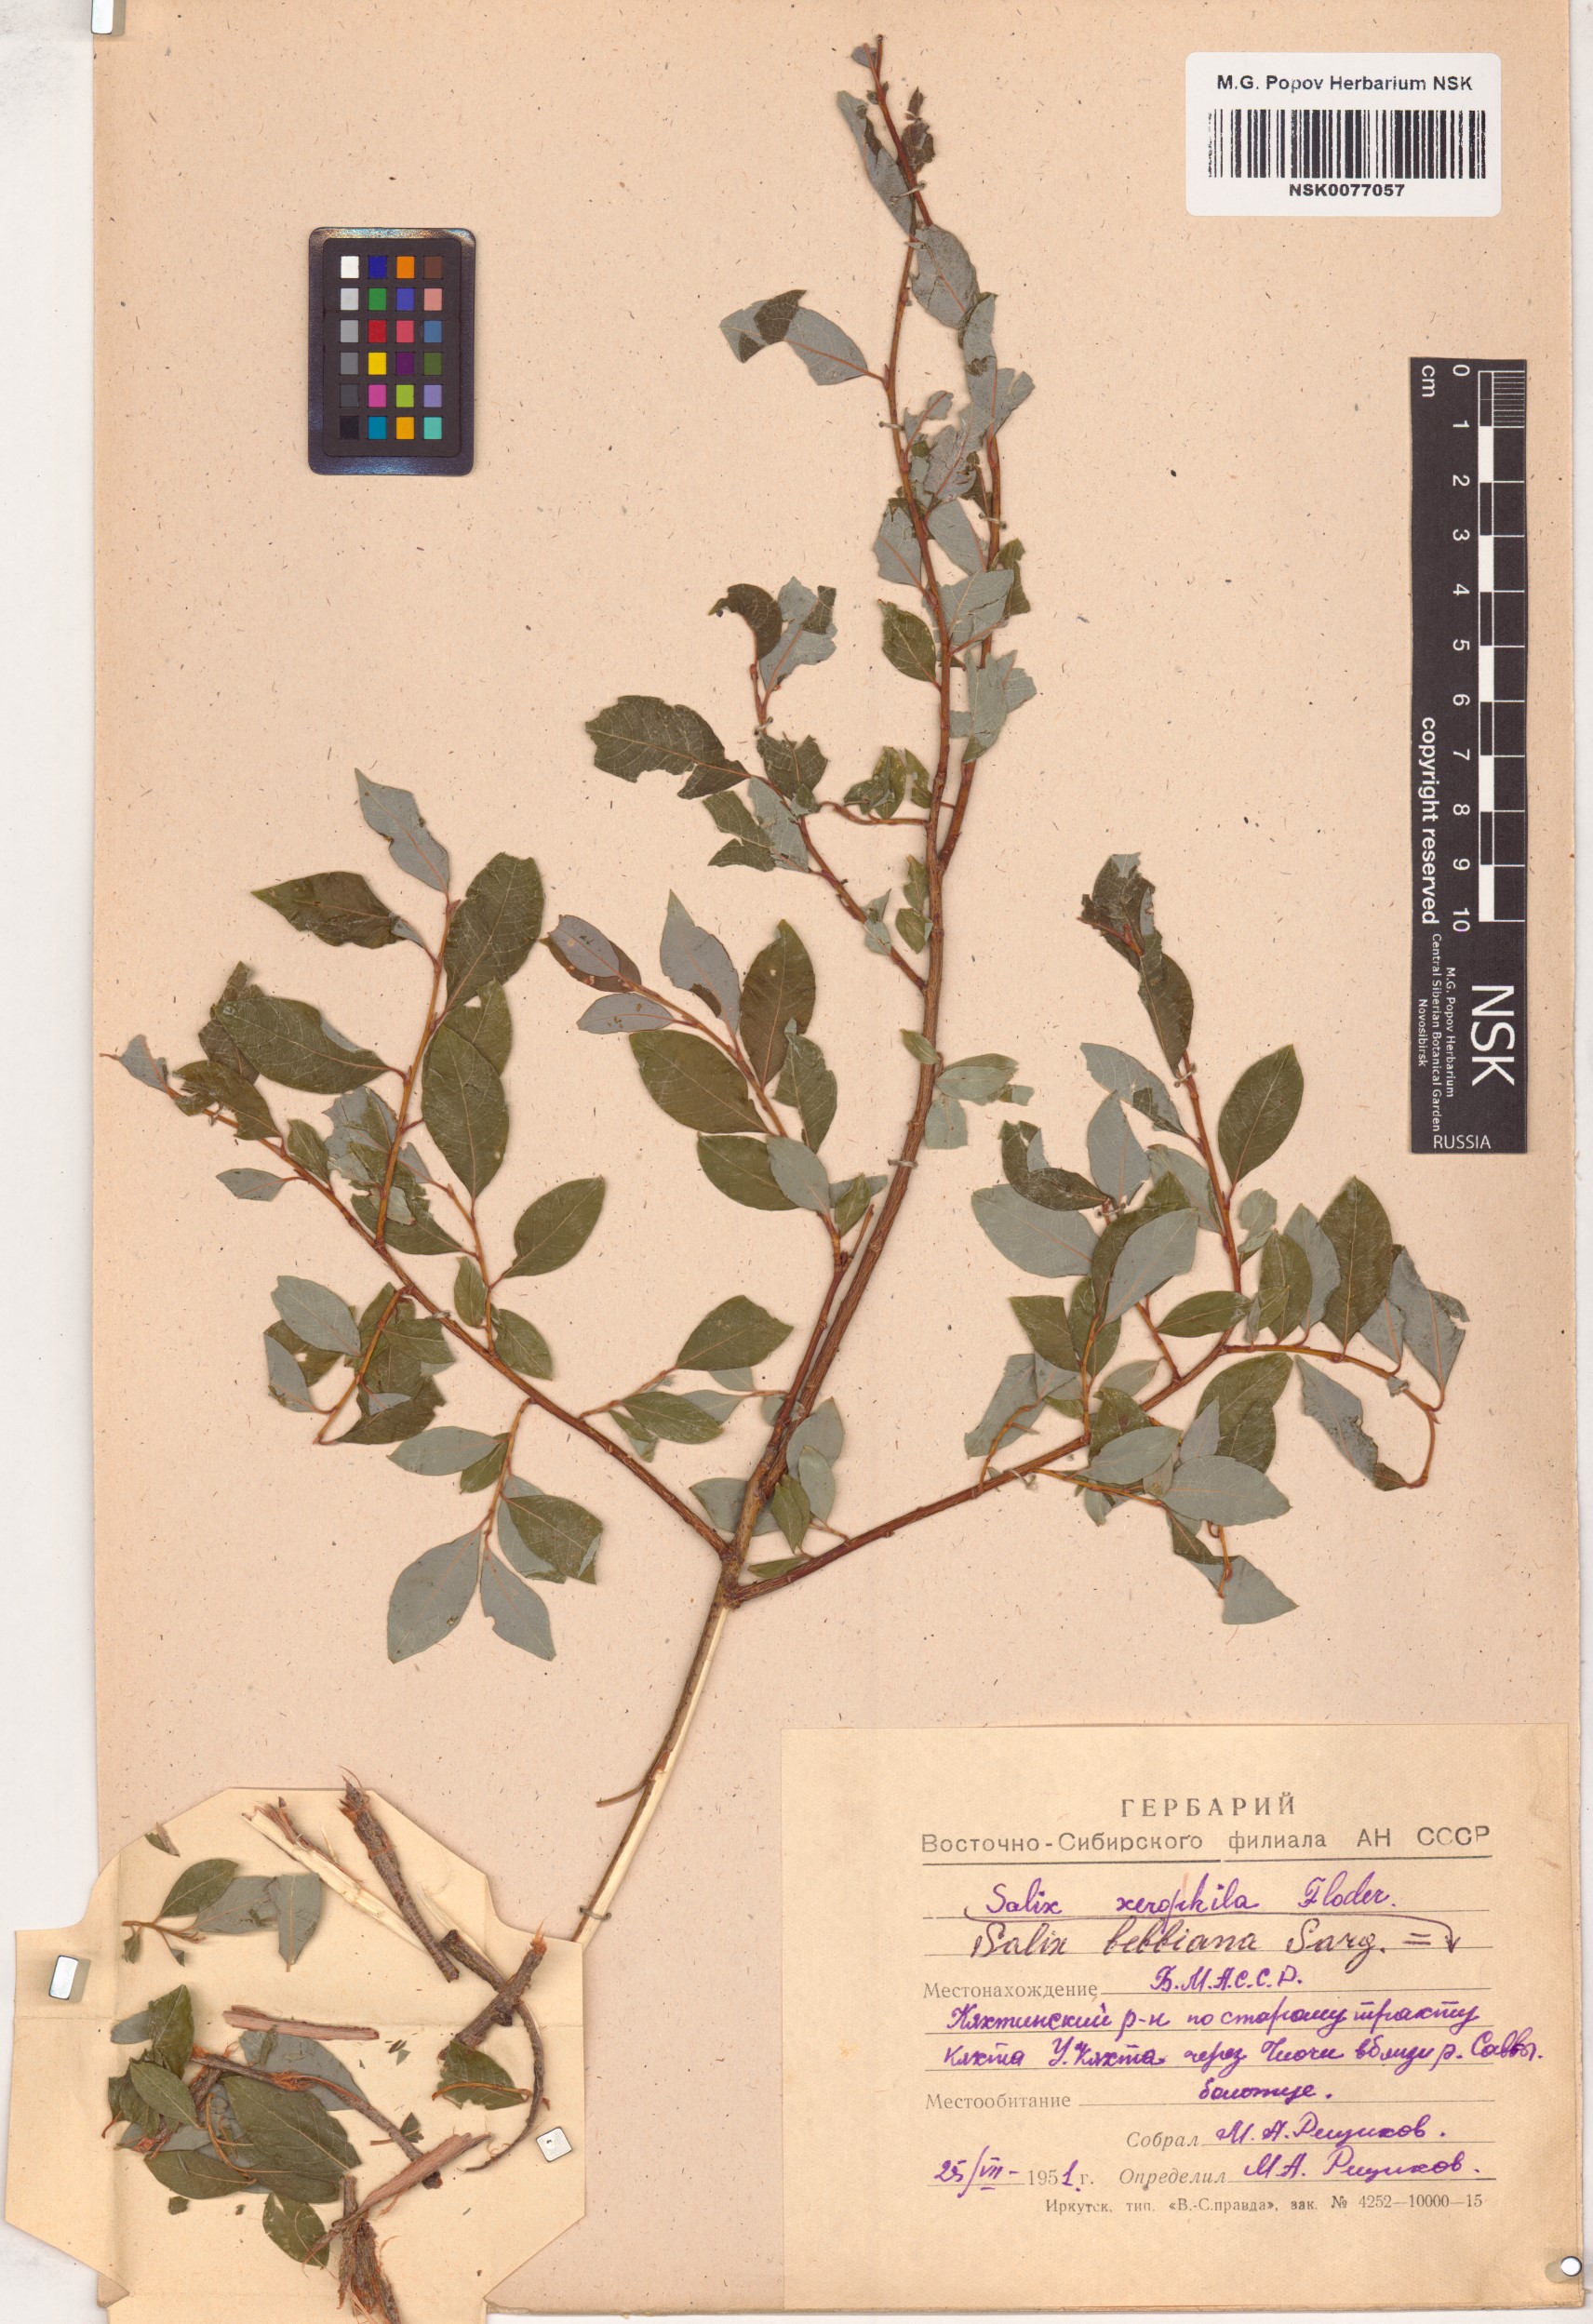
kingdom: Plantae
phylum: Tracheophyta
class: Magnoliopsida
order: Malpighiales
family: Salicaceae
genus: Salix
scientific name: Salix bebbiana
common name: Bebb's willow
